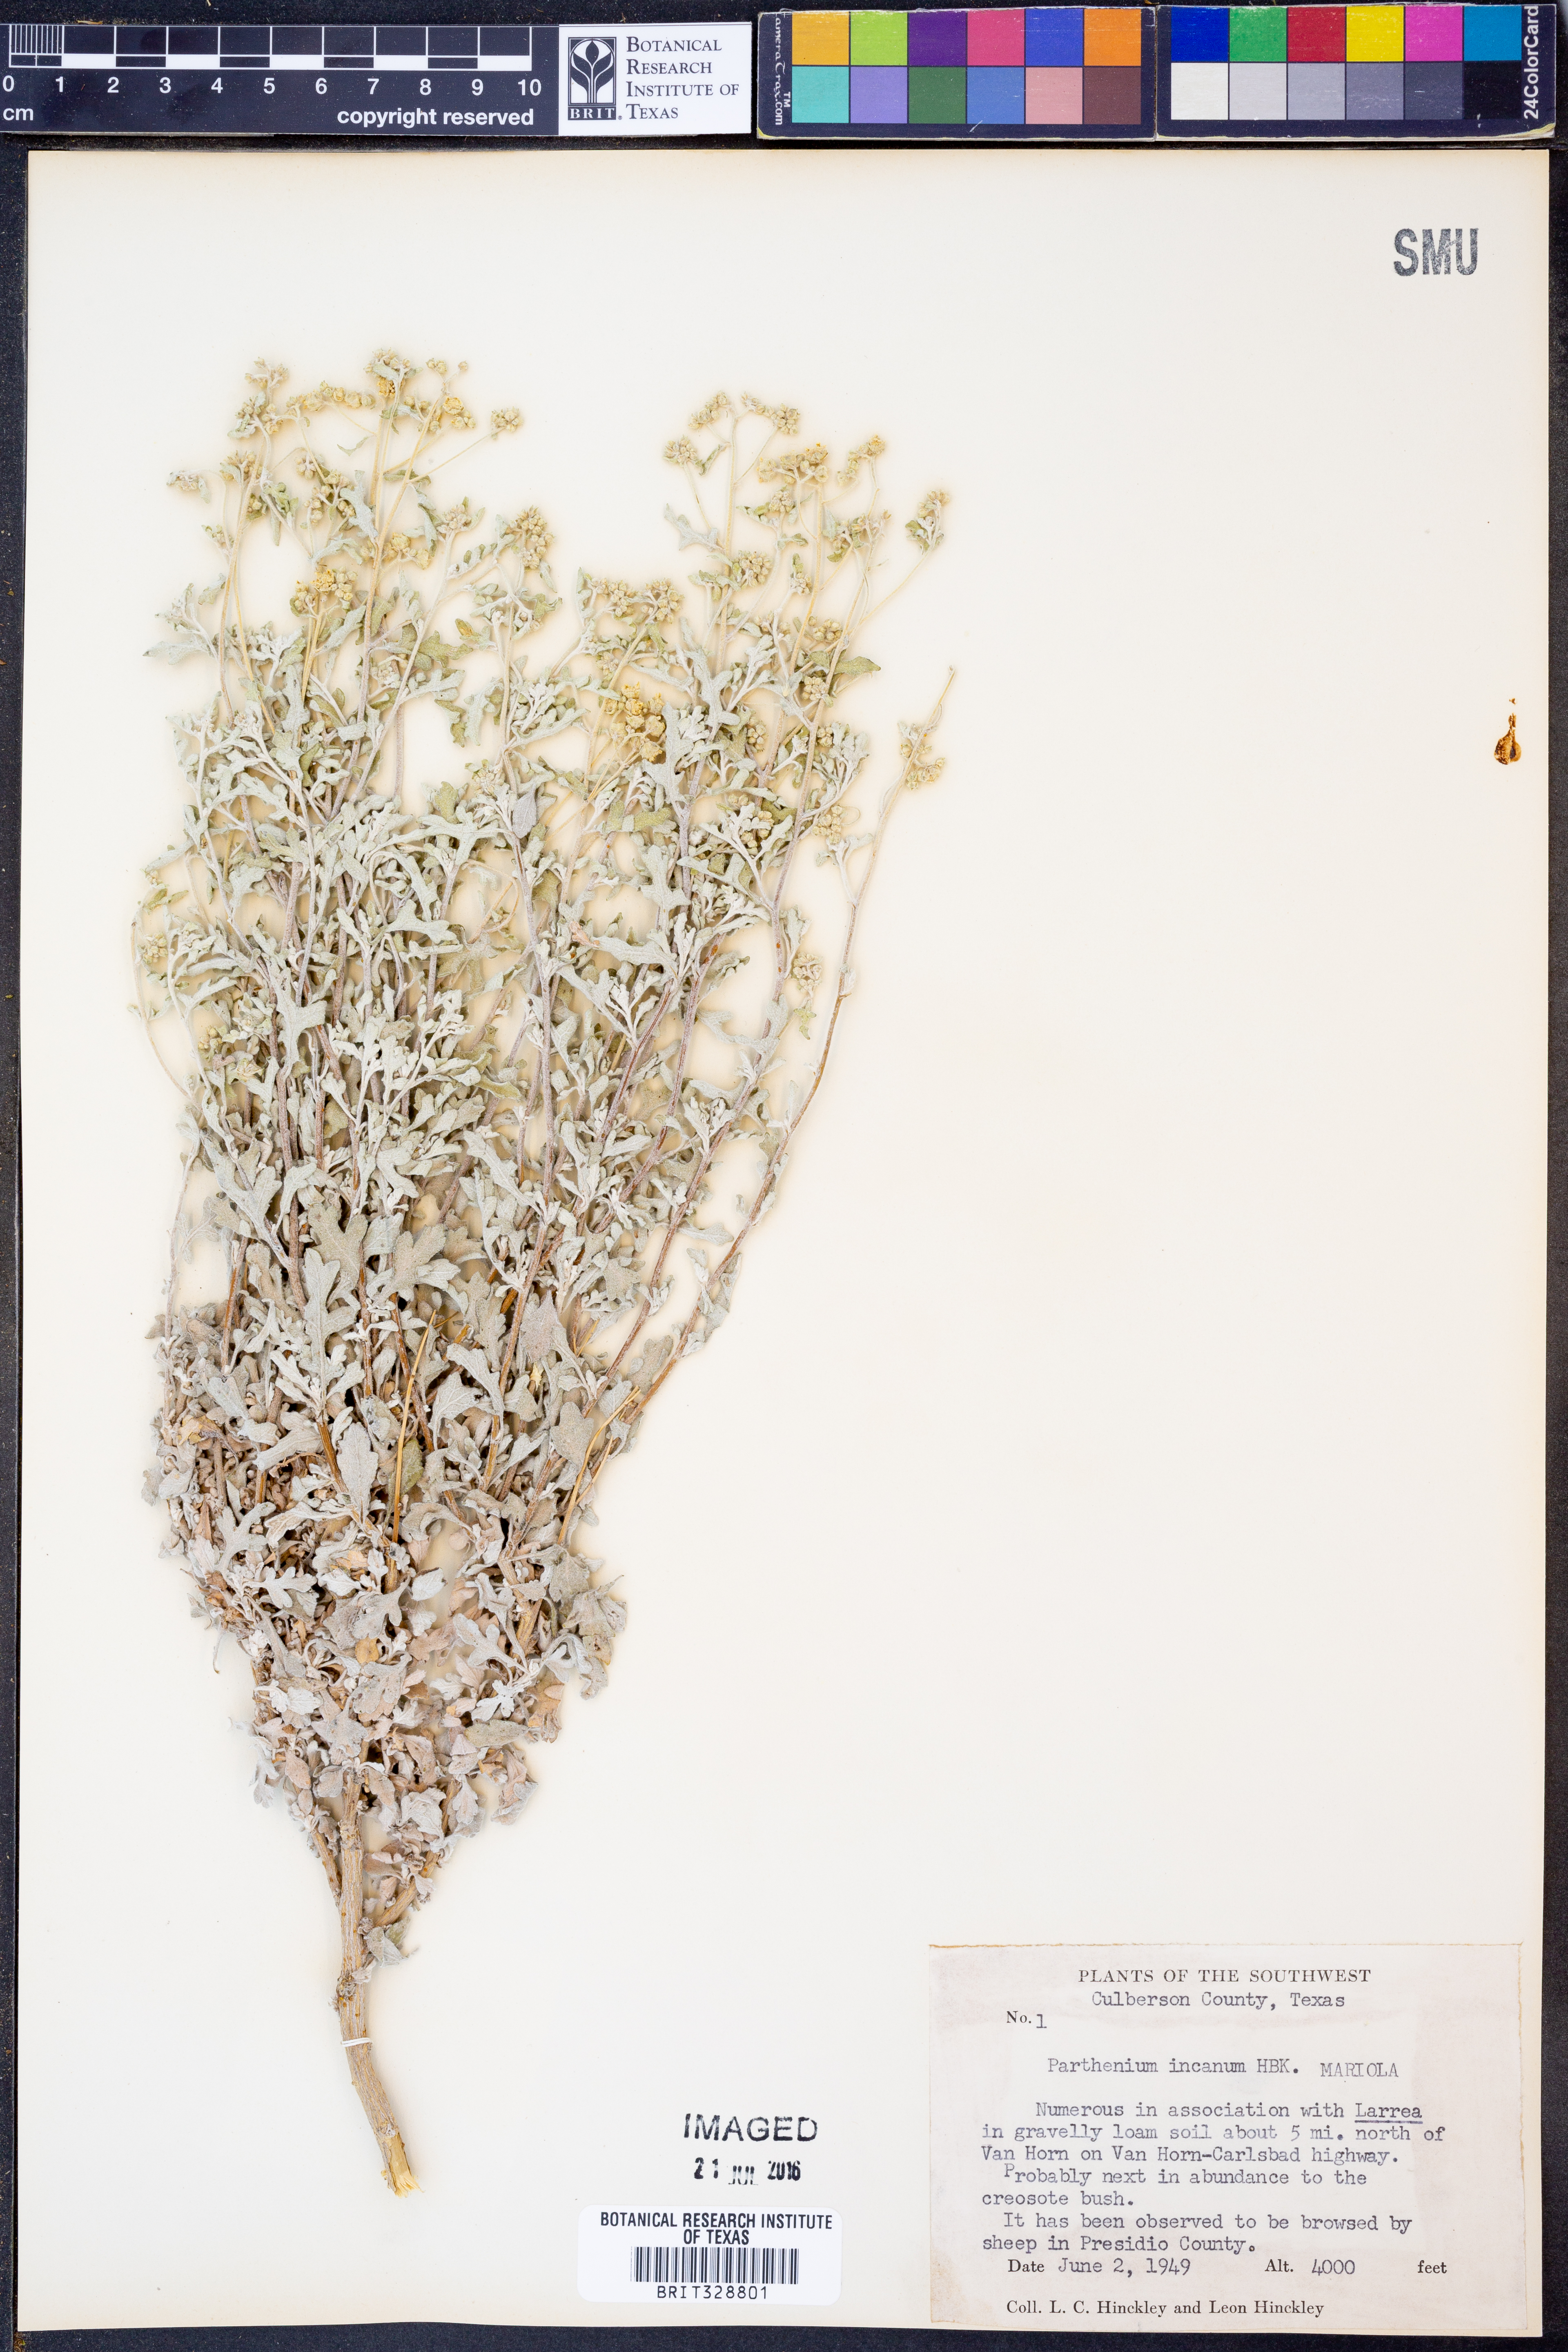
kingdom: Plantae
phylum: Tracheophyta
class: Magnoliopsida
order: Asterales
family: Asteraceae
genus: Parthenium
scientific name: Parthenium incanum
